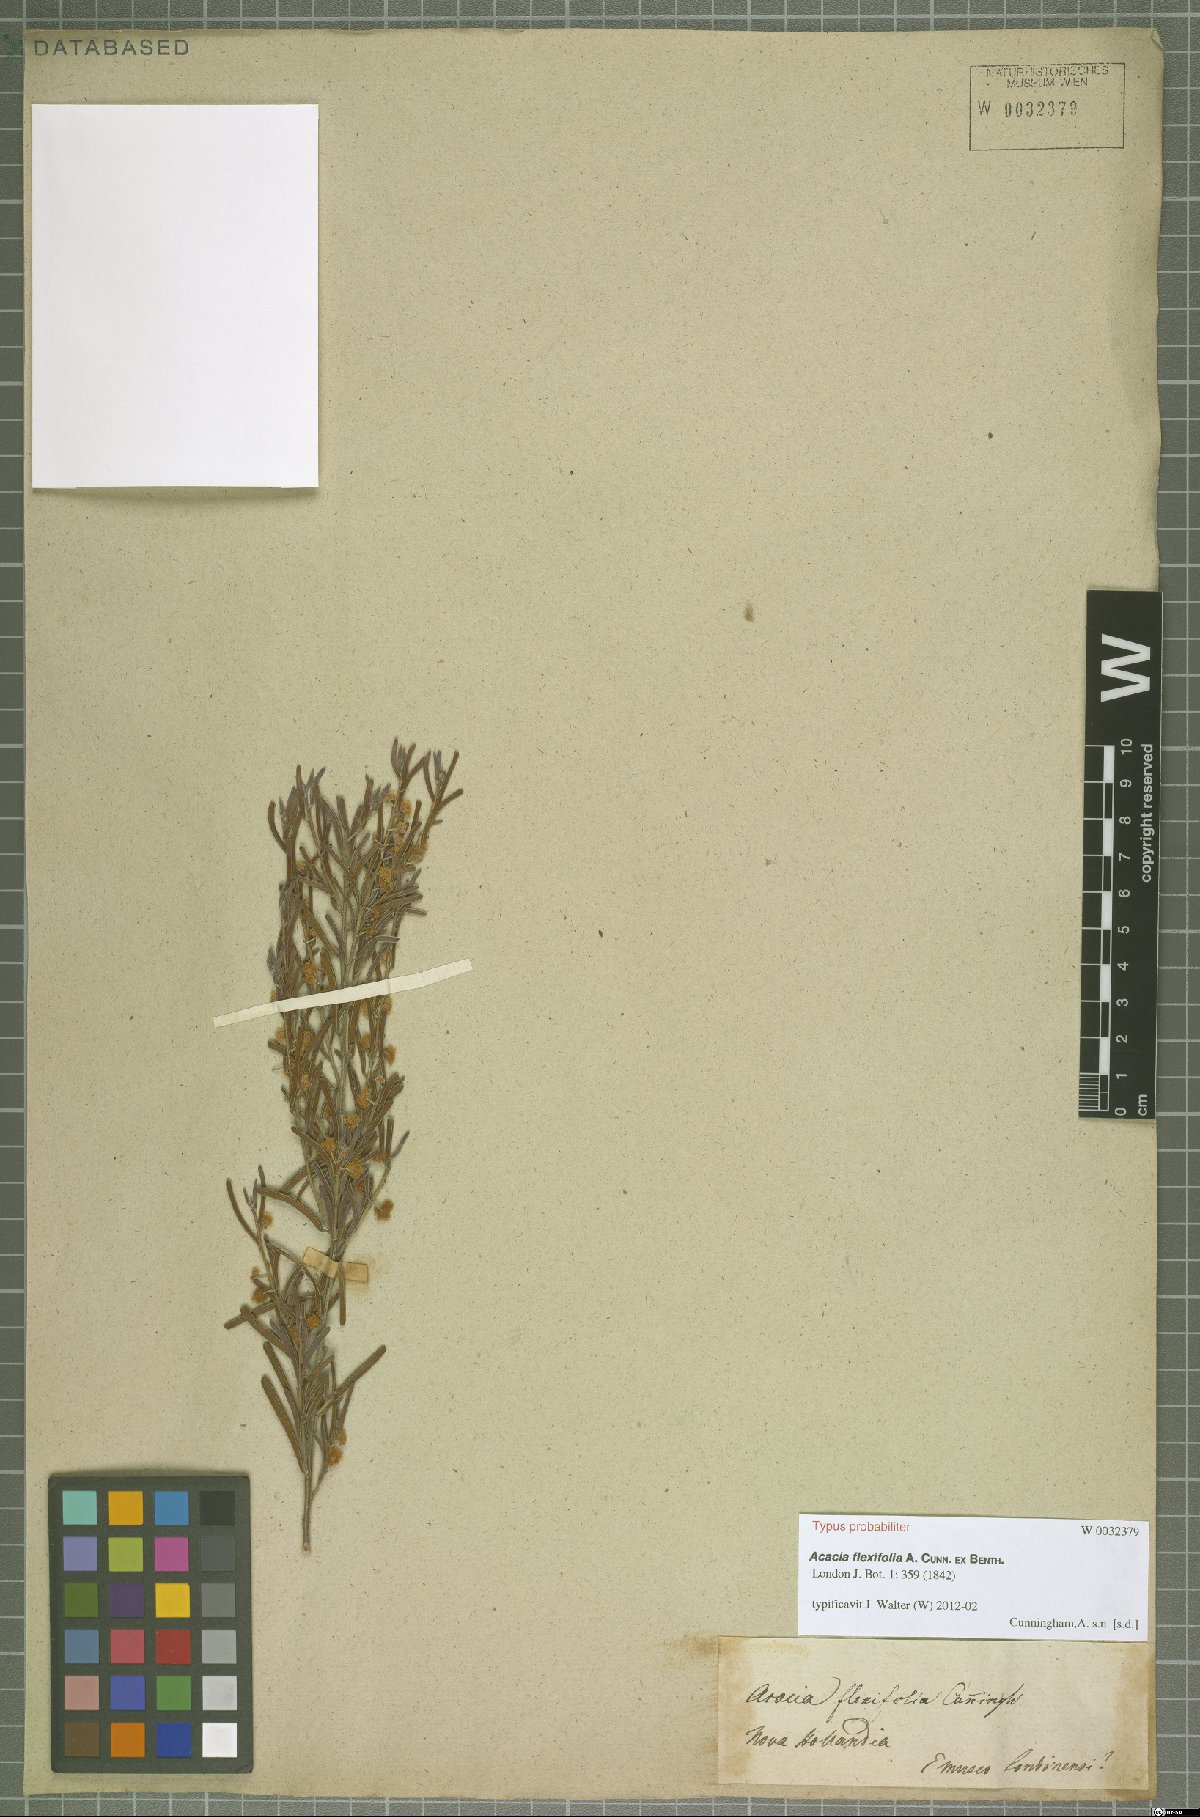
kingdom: Plantae
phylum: Tracheophyta
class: Magnoliopsida
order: Fabales
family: Fabaceae
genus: Acacia
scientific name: Acacia flexifolia
